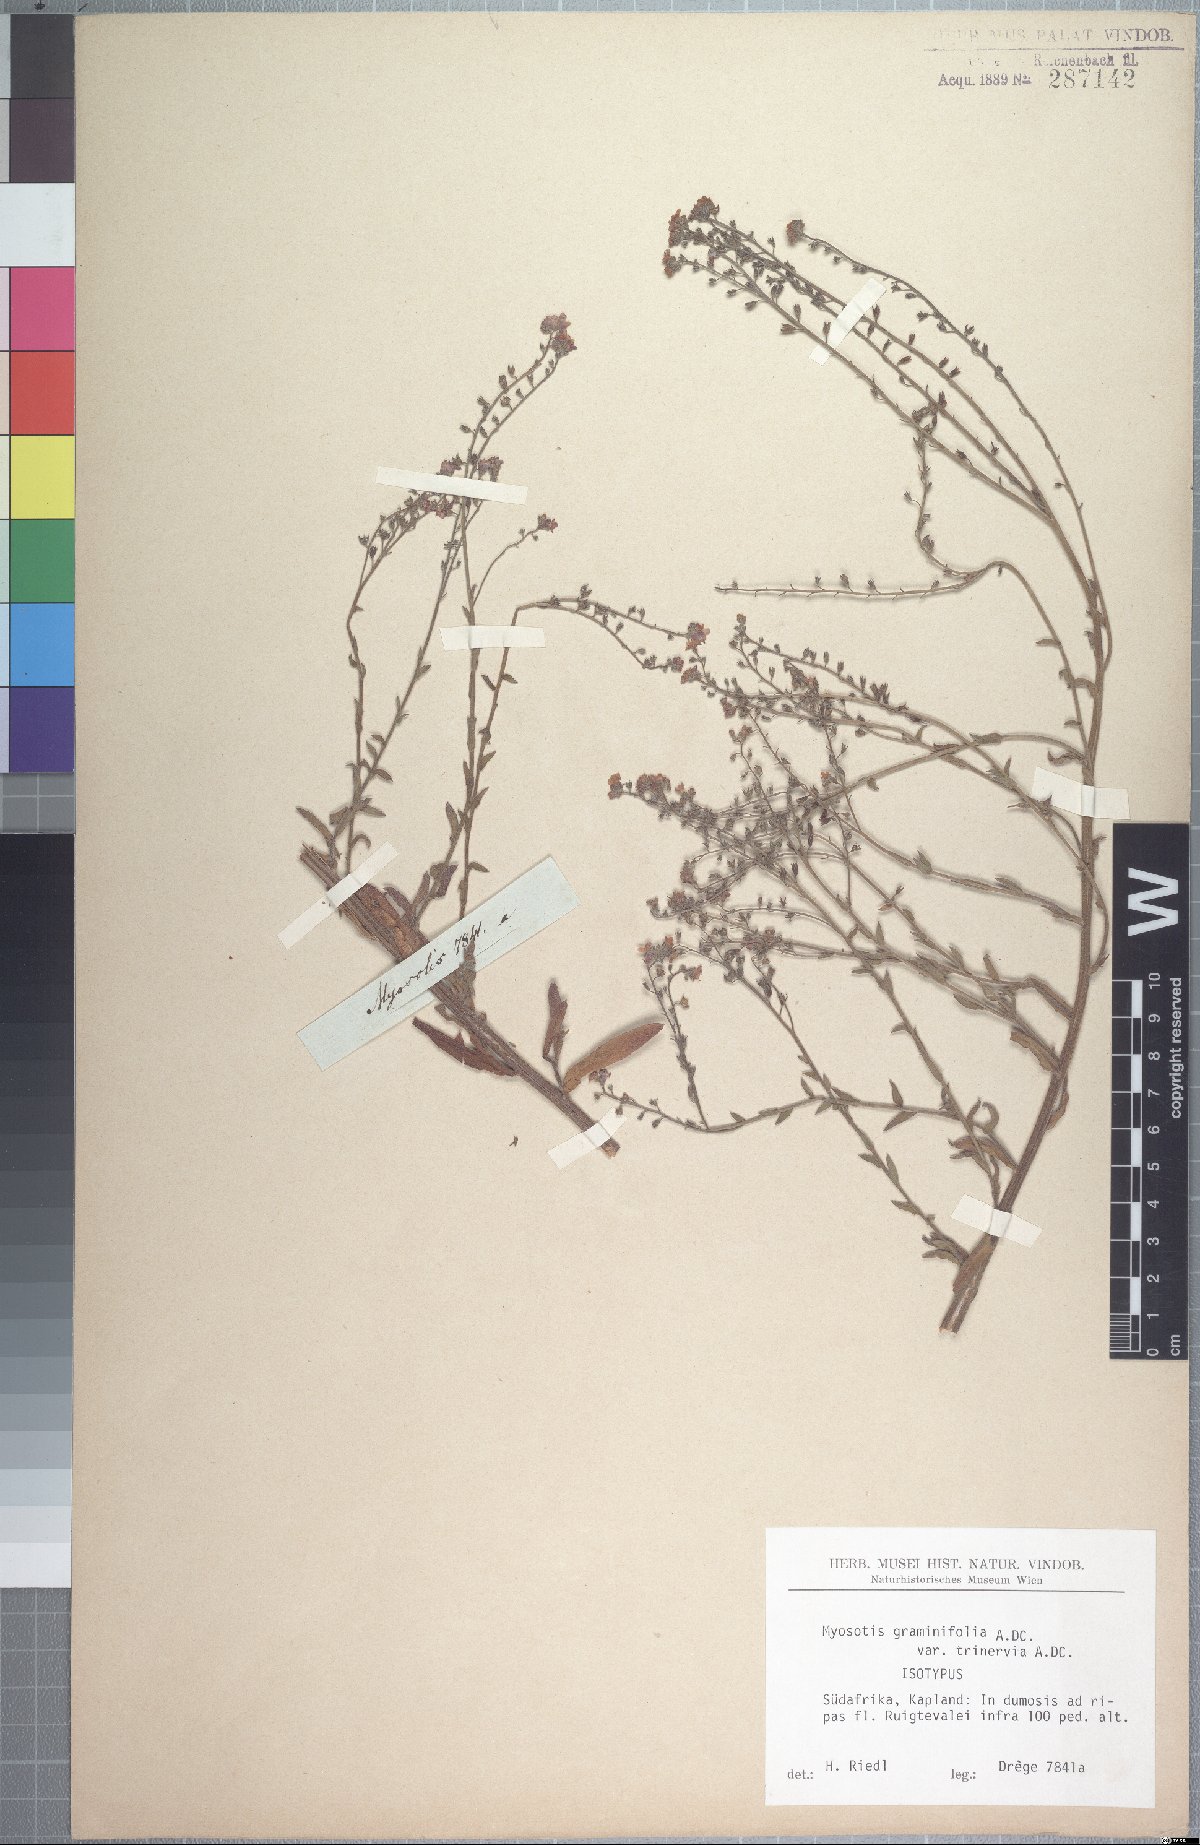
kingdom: Plantae
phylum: Tracheophyta
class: Magnoliopsida
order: Boraginales
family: Boraginaceae
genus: Myosotis
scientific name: Myosotis graminifolia
